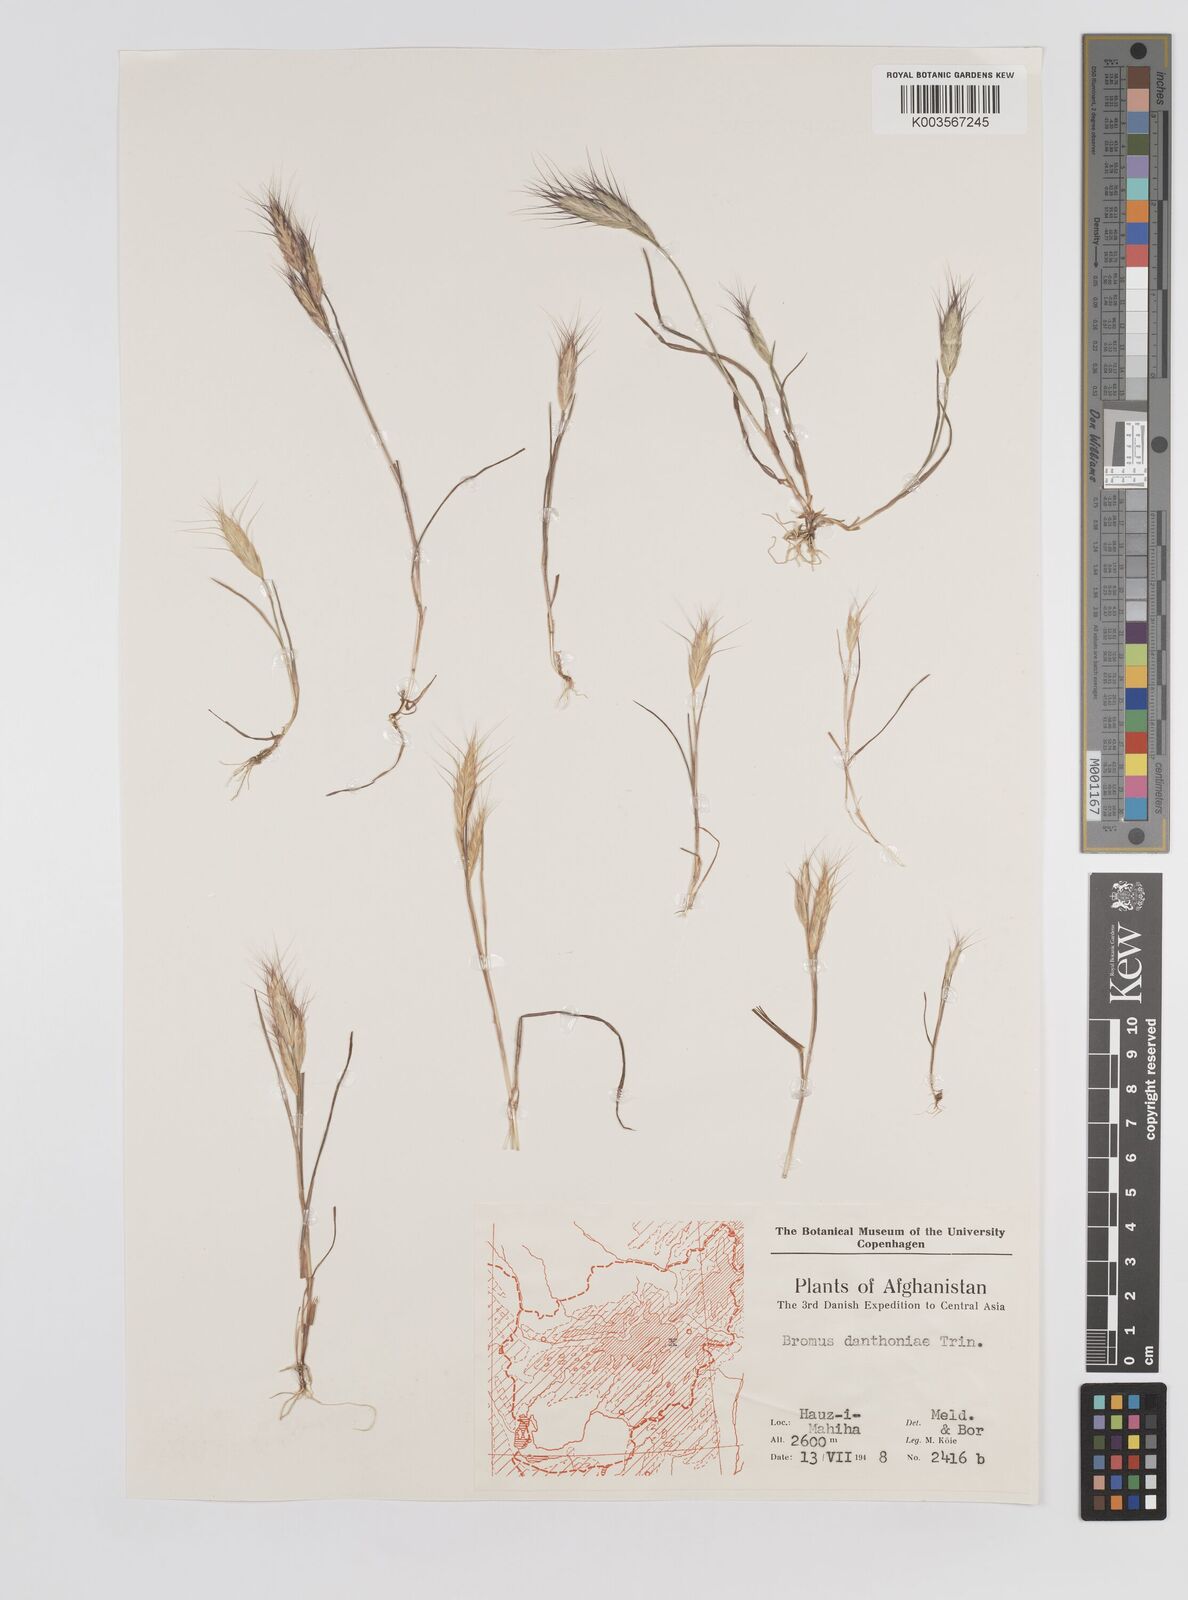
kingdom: Plantae
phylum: Tracheophyta
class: Liliopsida
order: Poales
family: Poaceae
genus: Bromus
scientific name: Bromus danthoniae
